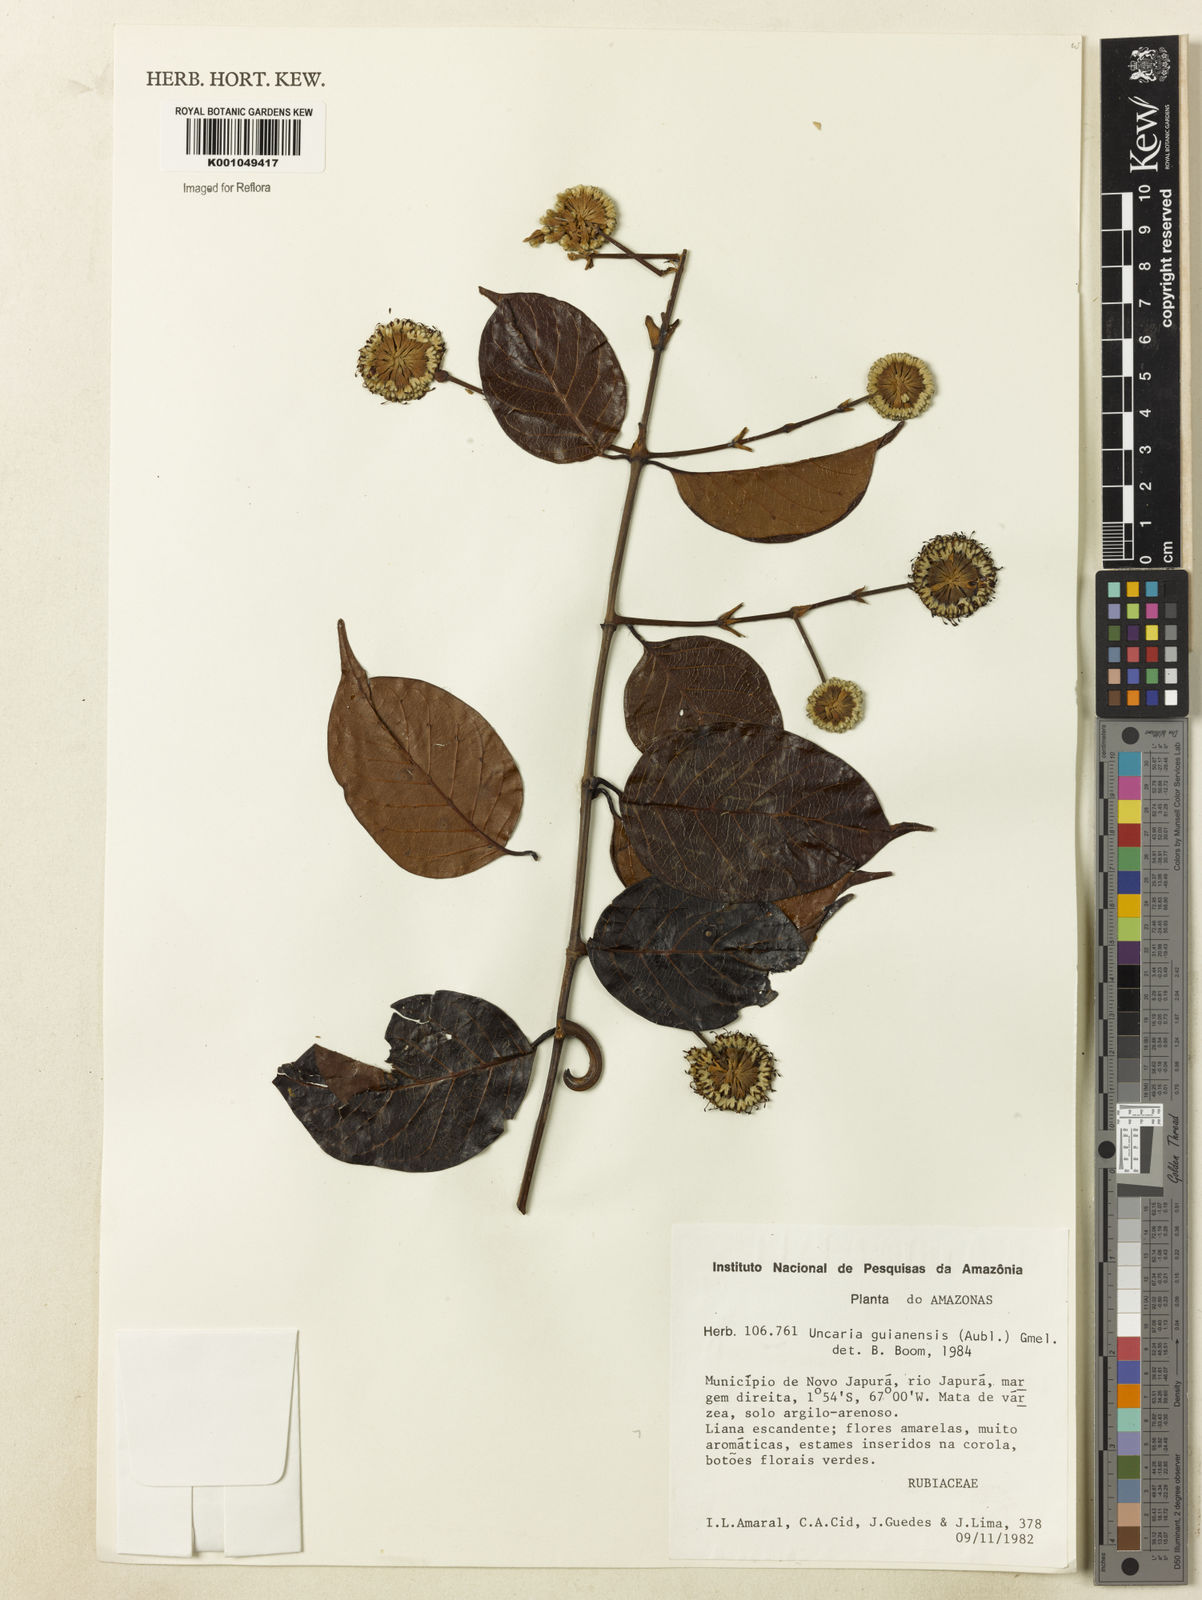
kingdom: Plantae
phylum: Tracheophyta
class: Magnoliopsida
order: Gentianales
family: Rubiaceae
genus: Uncaria
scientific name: Uncaria guianensis
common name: Cat's-claw
